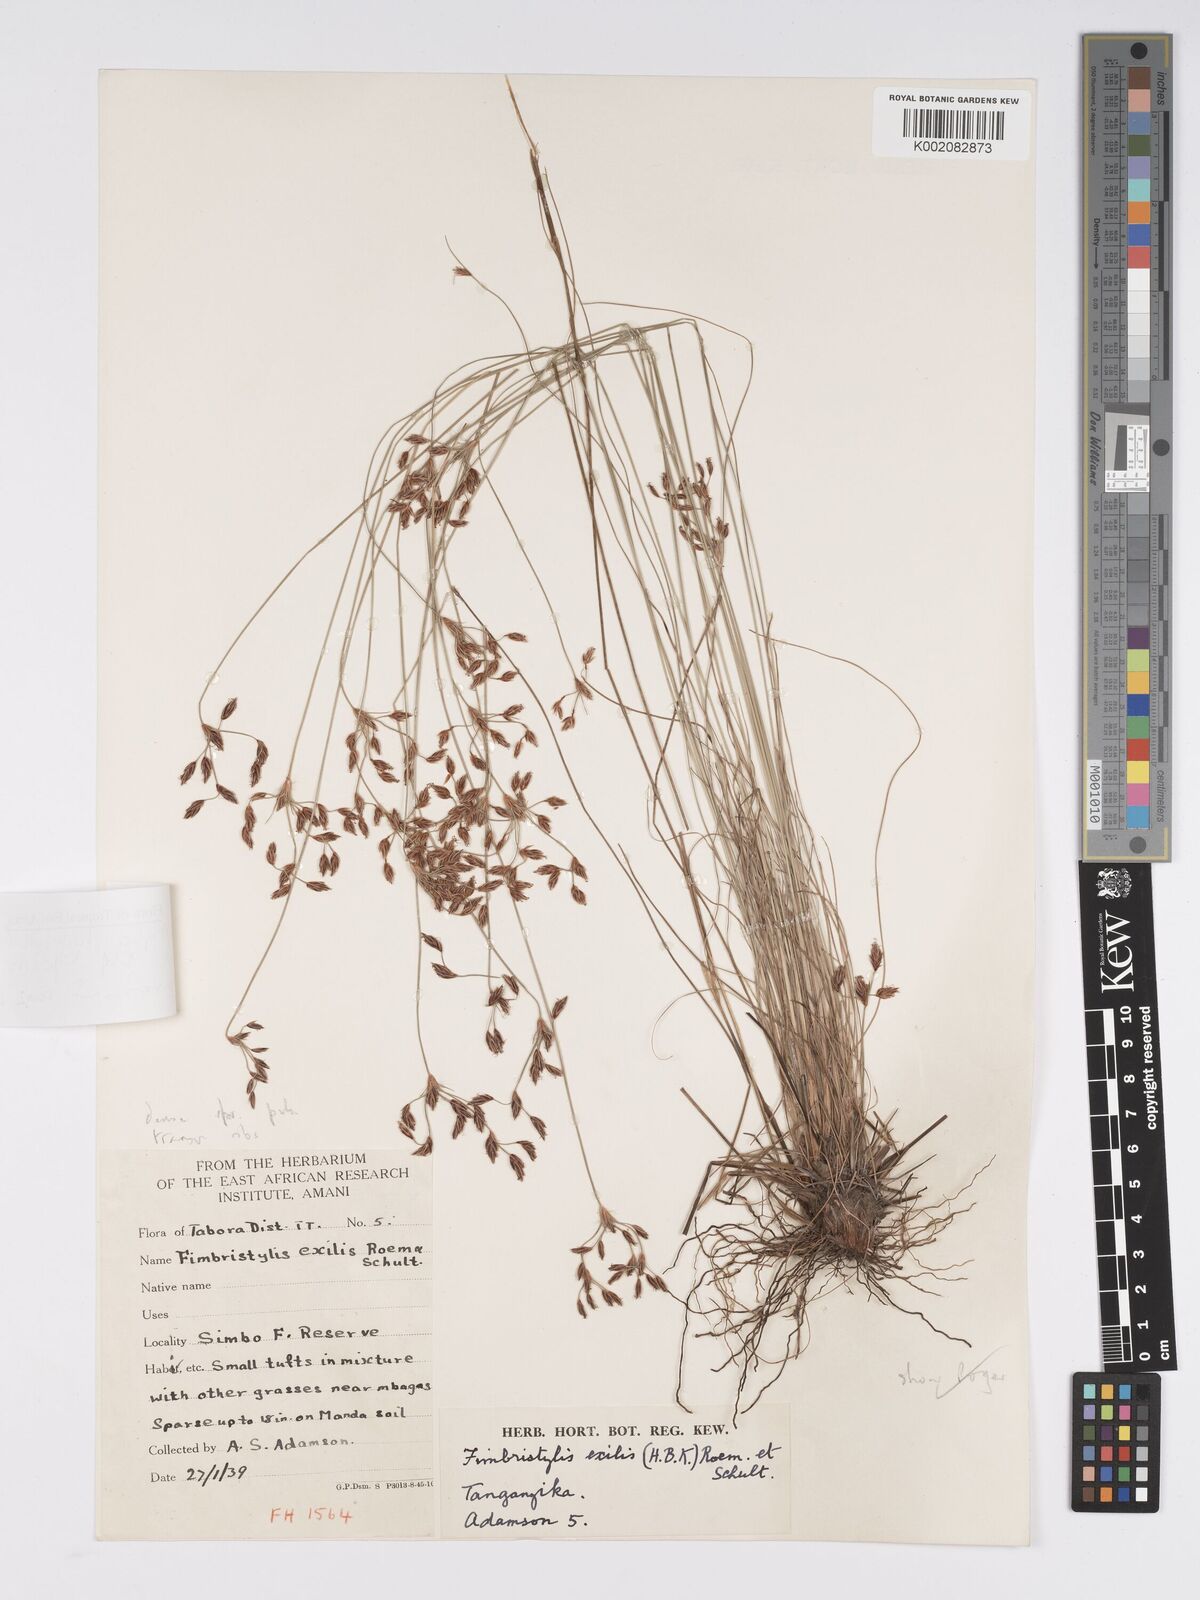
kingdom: Plantae
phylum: Tracheophyta
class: Liliopsida
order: Poales
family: Cyperaceae
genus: Bulbostylis
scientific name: Bulbostylis hispidula
